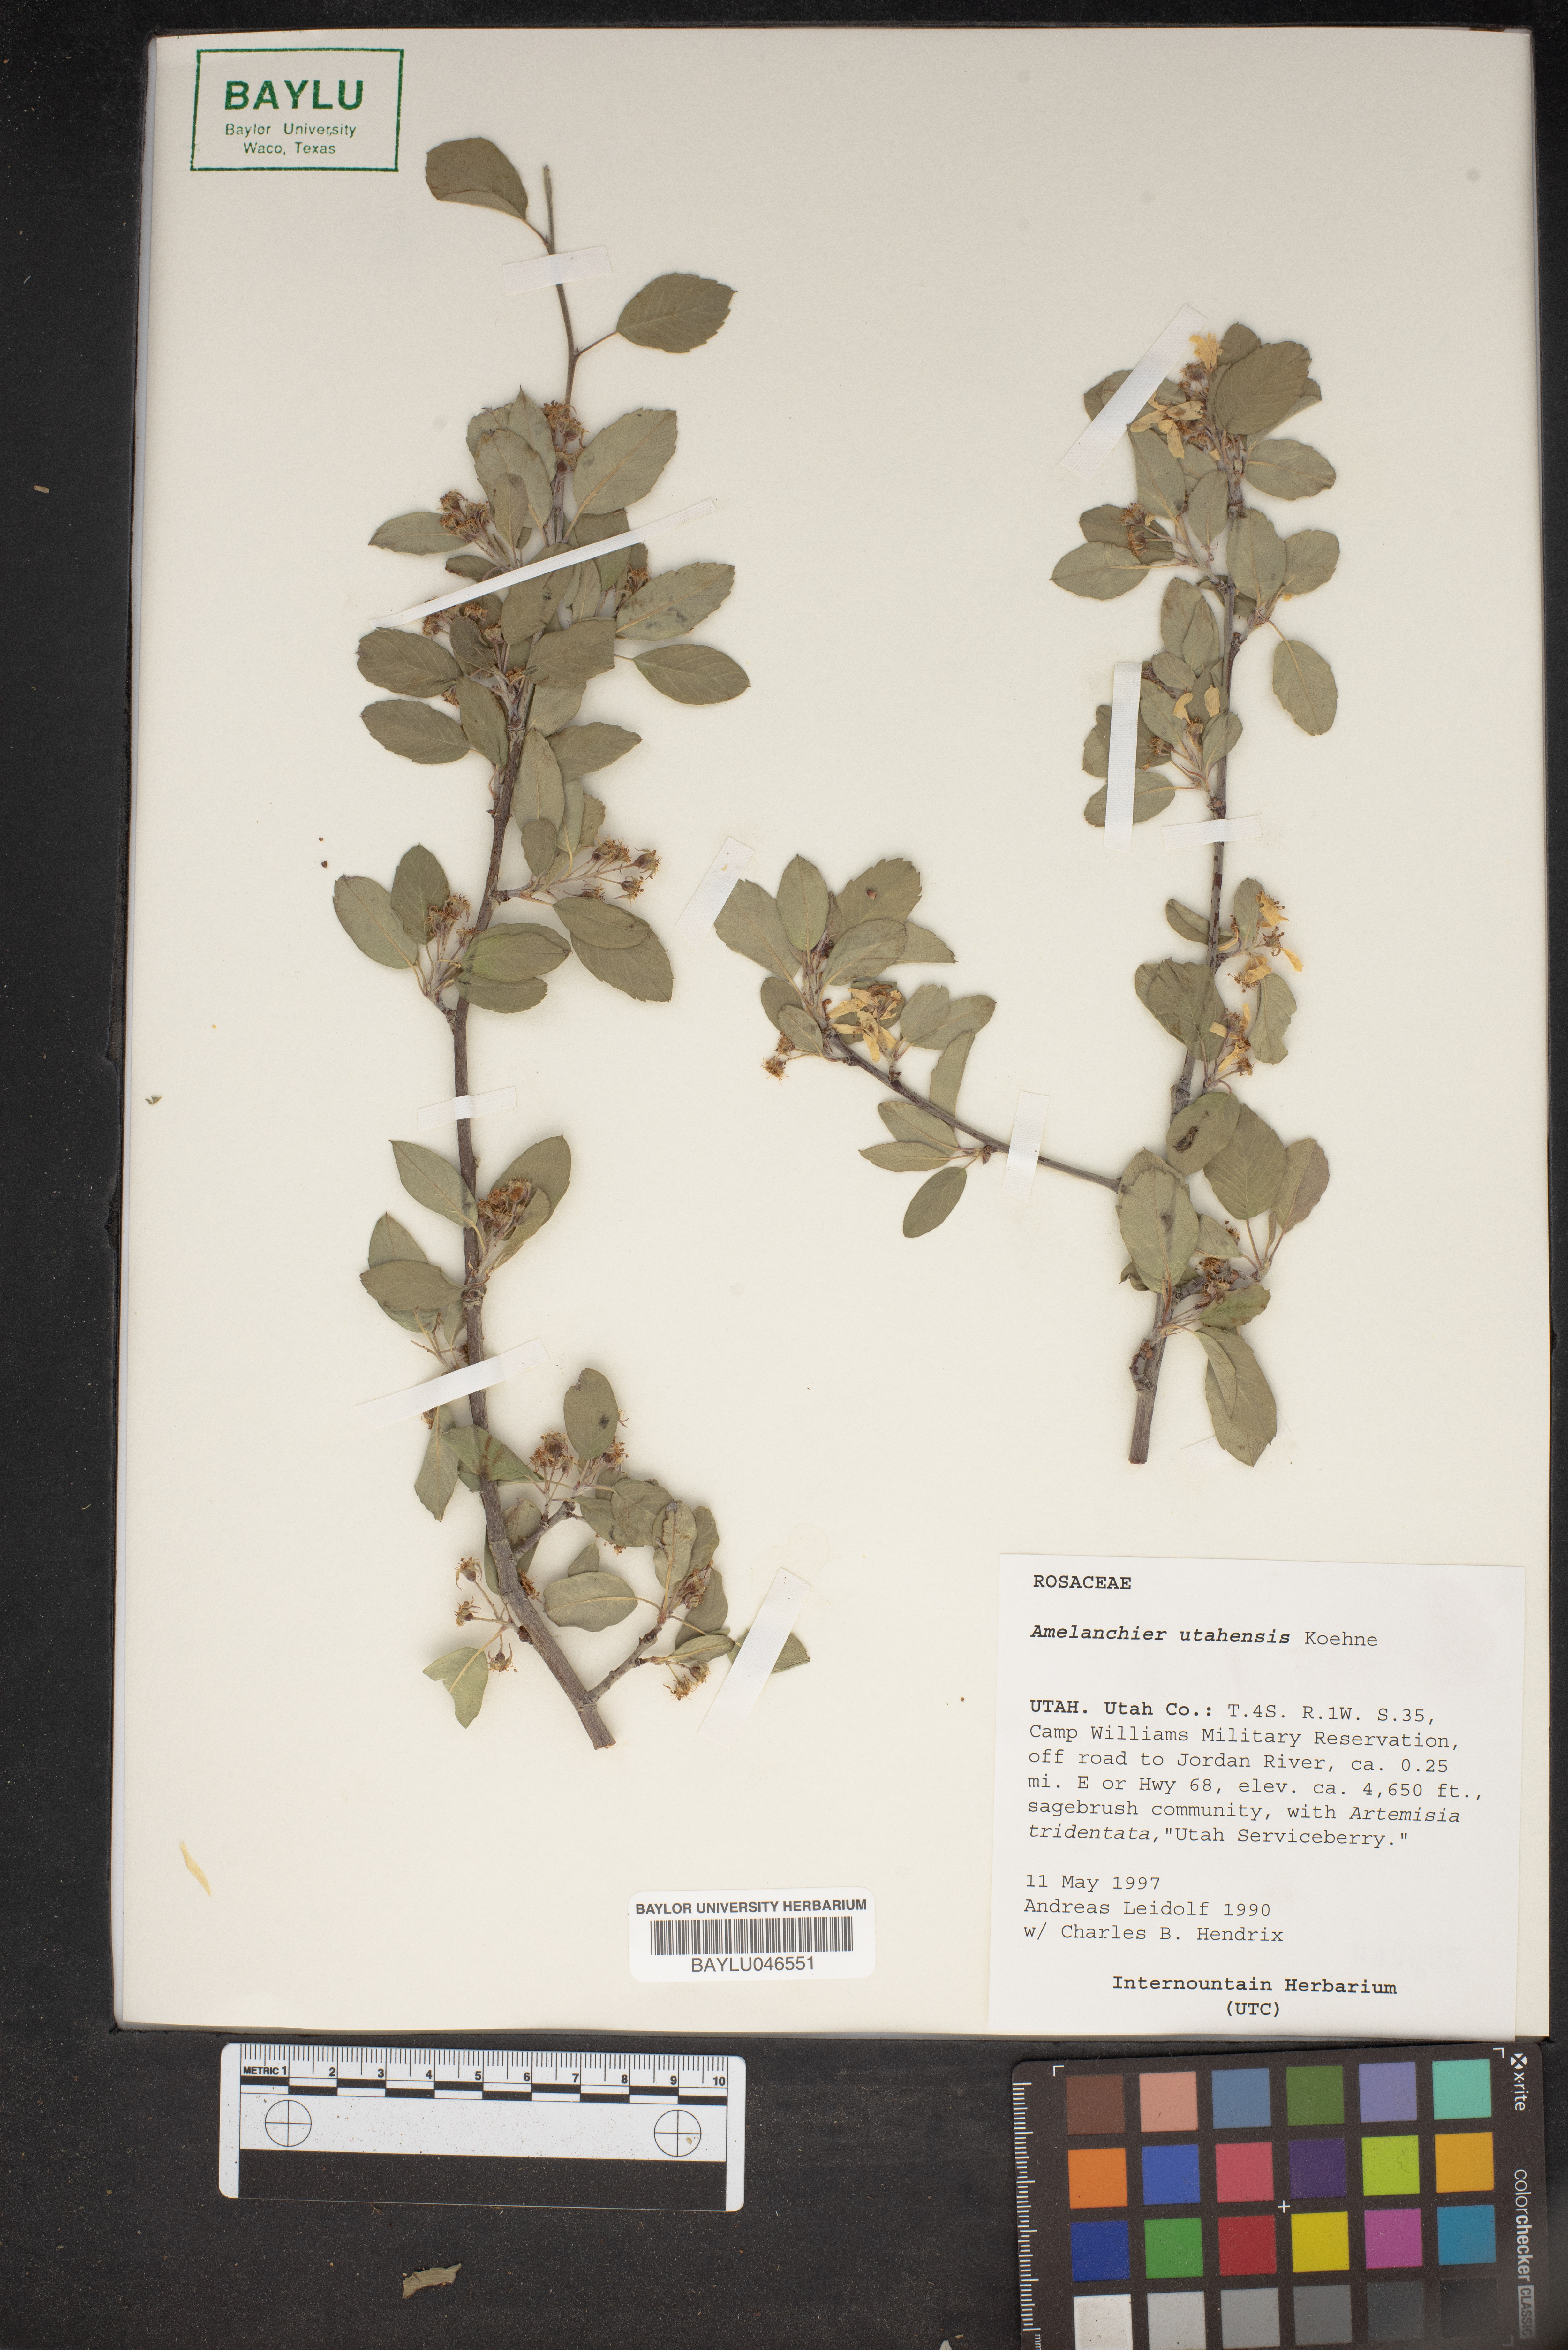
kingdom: Plantae
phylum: Tracheophyta
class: Magnoliopsida
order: Rosales
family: Rosaceae
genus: Amelanchier
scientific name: Amelanchier utahensis
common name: Utah serviceberry
